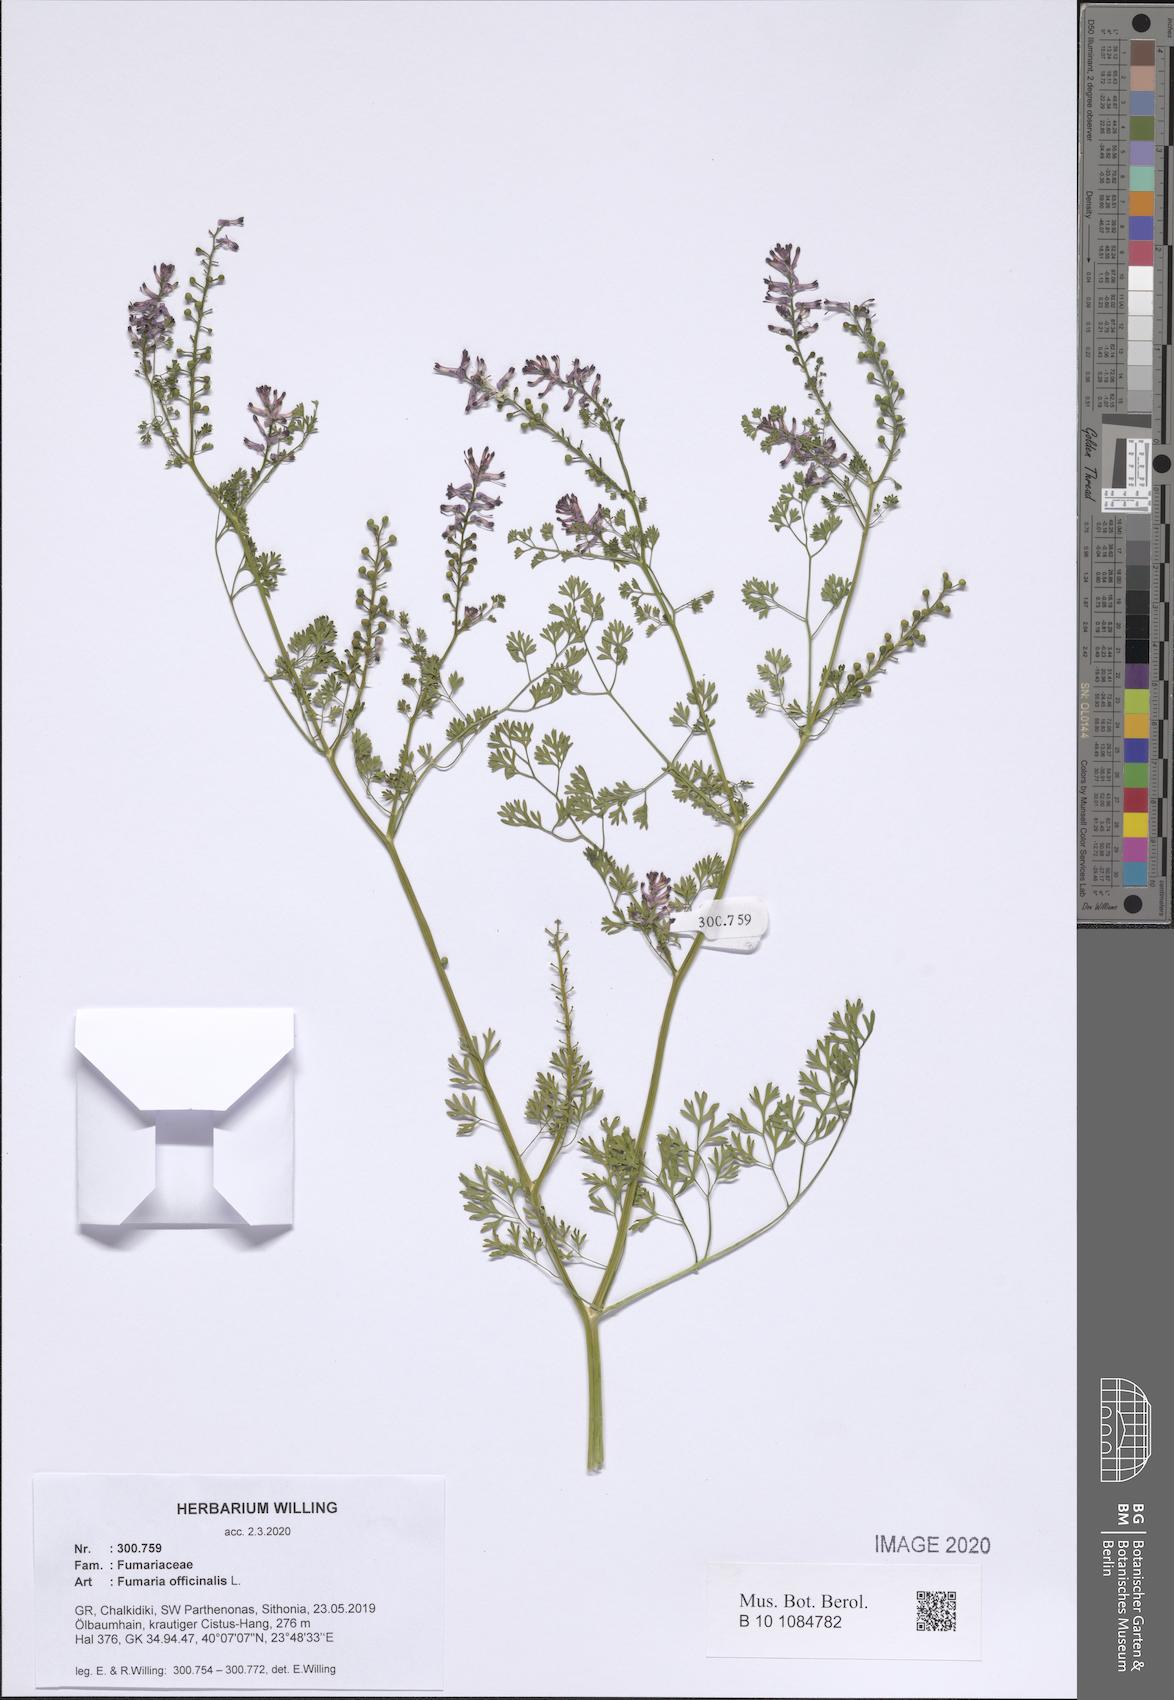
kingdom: Plantae
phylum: Tracheophyta
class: Magnoliopsida
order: Ranunculales
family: Papaveraceae
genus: Fumaria
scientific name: Fumaria officinalis
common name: Common fumitory
